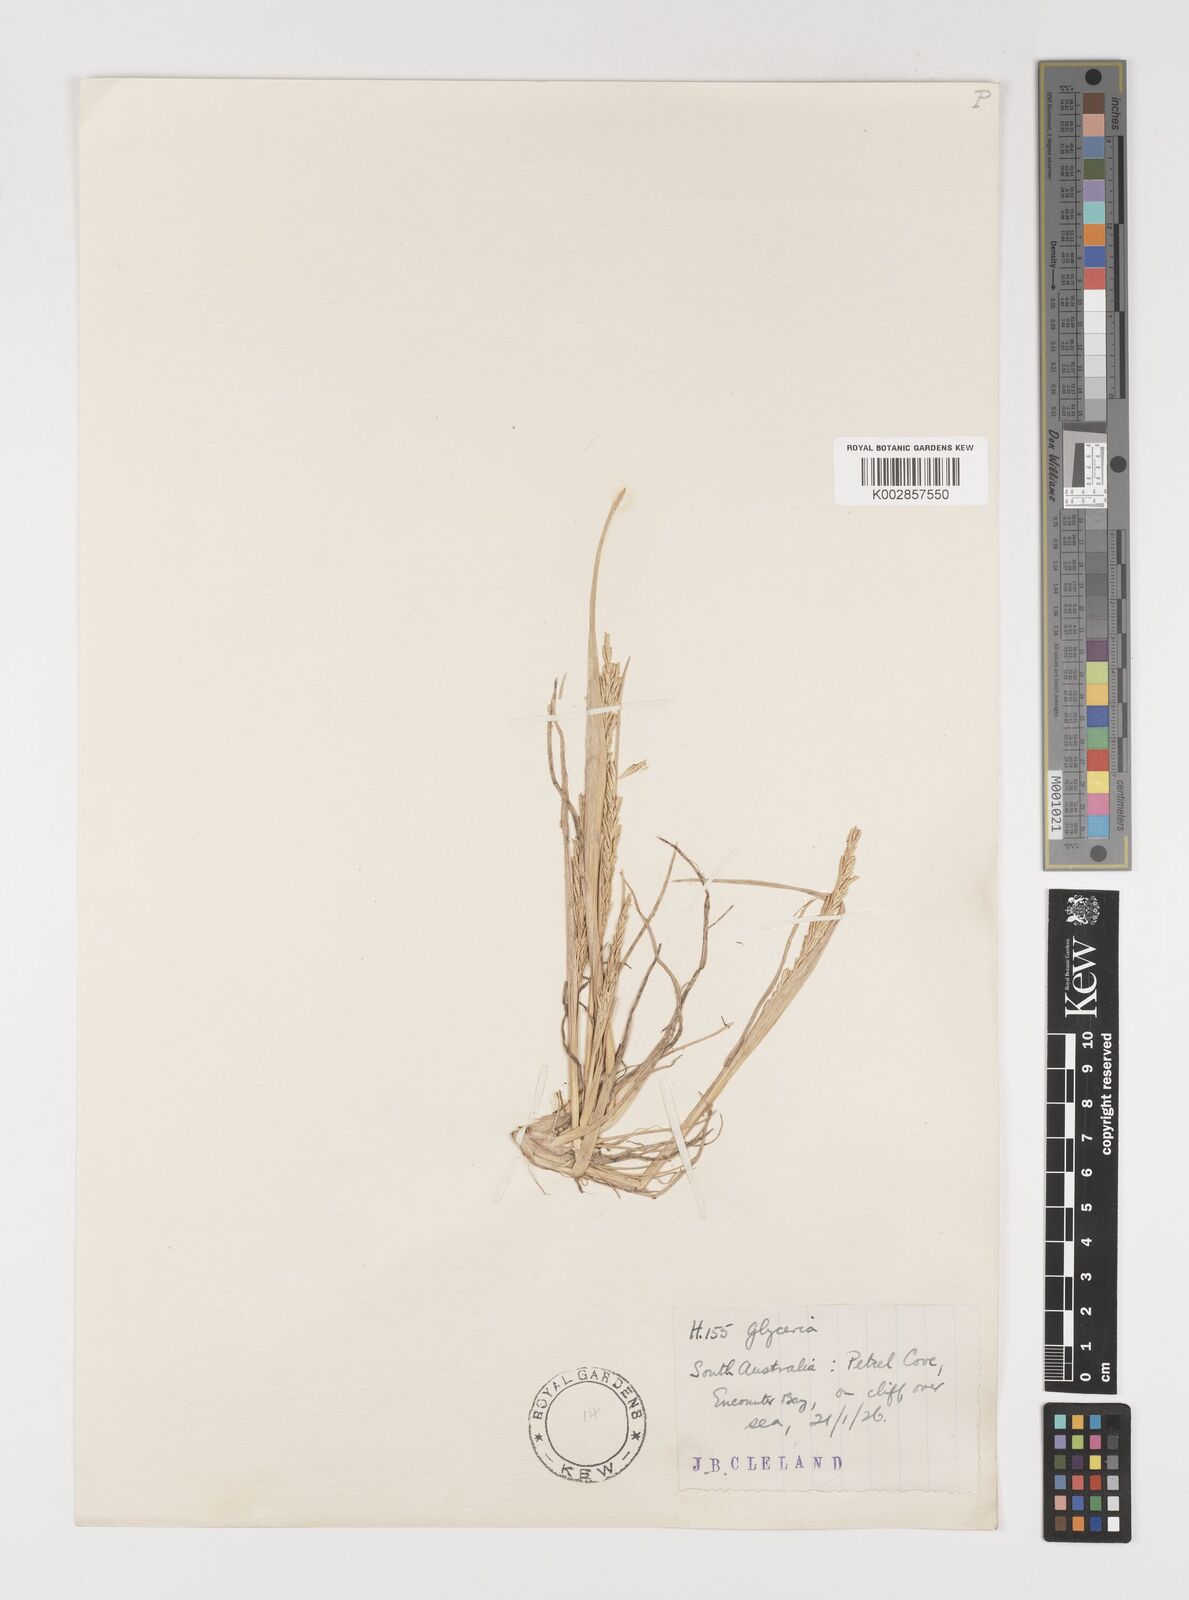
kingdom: Plantae
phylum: Tracheophyta
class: Liliopsida
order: Poales
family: Poaceae
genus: Puccinellia
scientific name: Puccinellia stricta
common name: Australian saltmarsh grass
